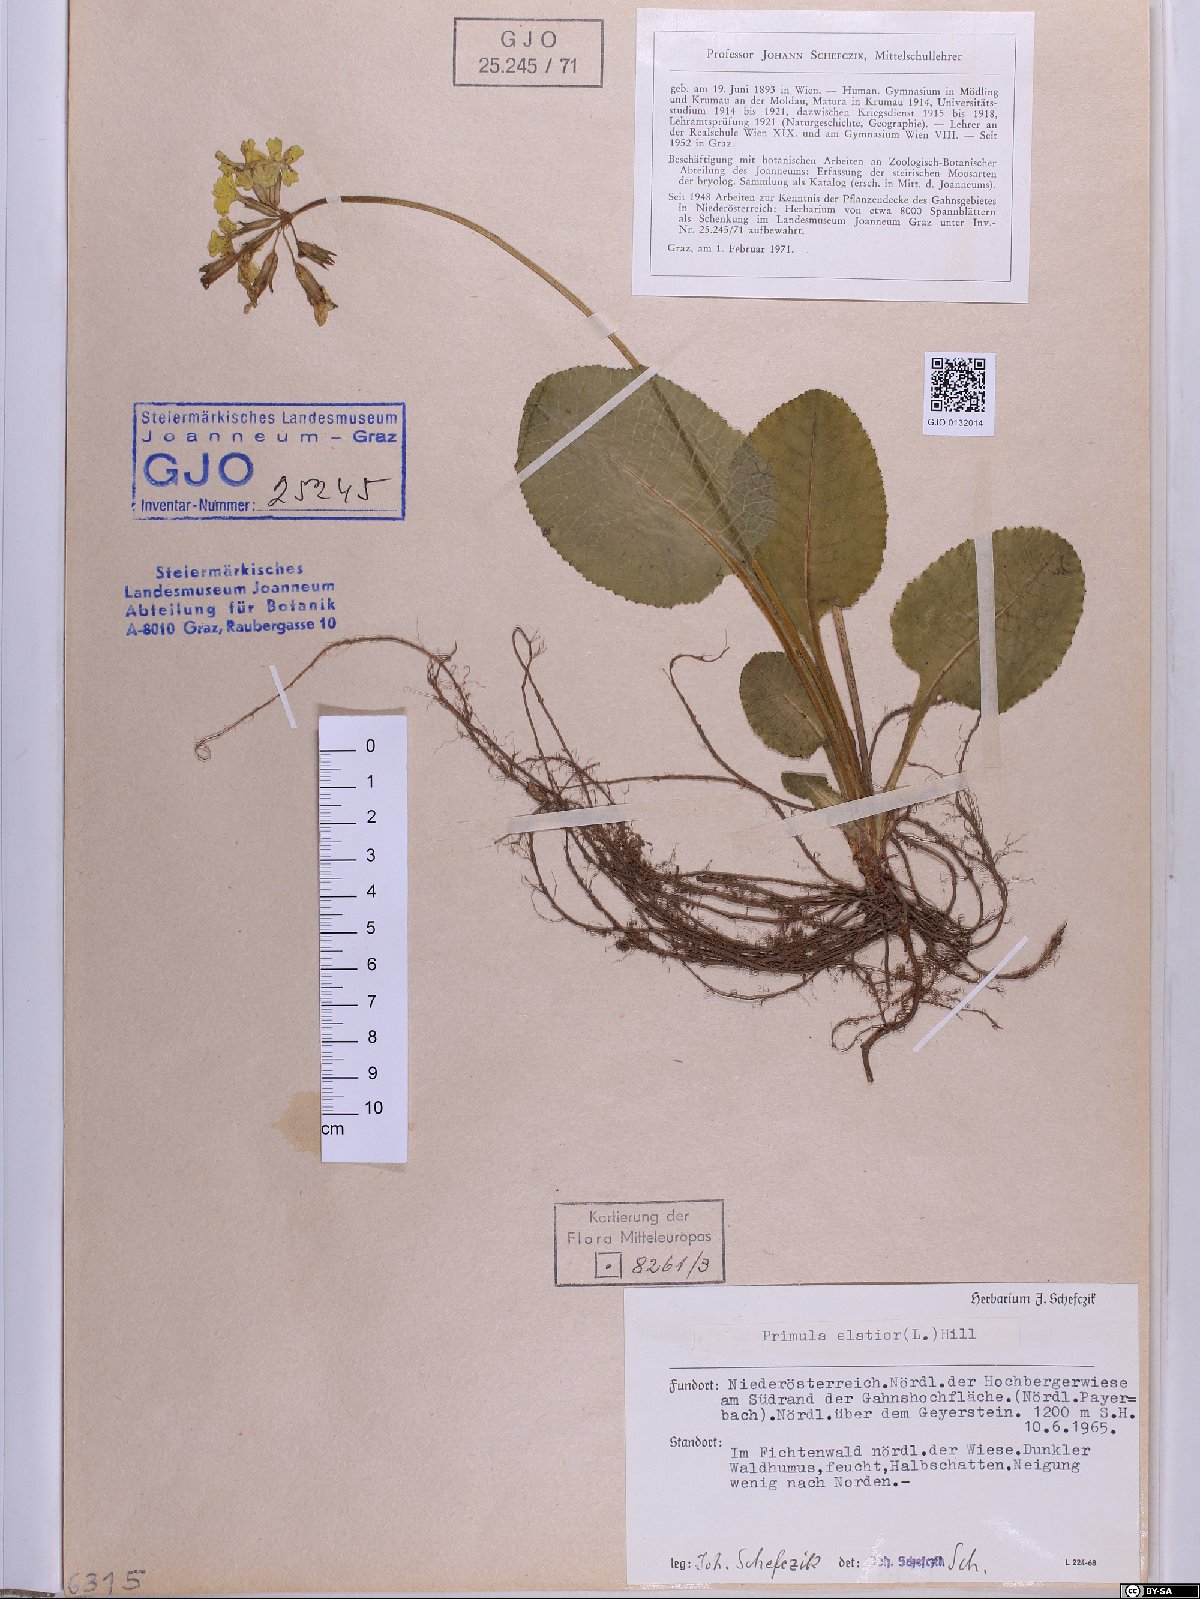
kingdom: Plantae
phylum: Tracheophyta
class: Magnoliopsida
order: Ericales
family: Primulaceae
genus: Primula
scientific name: Primula elatior
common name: Oxlip
